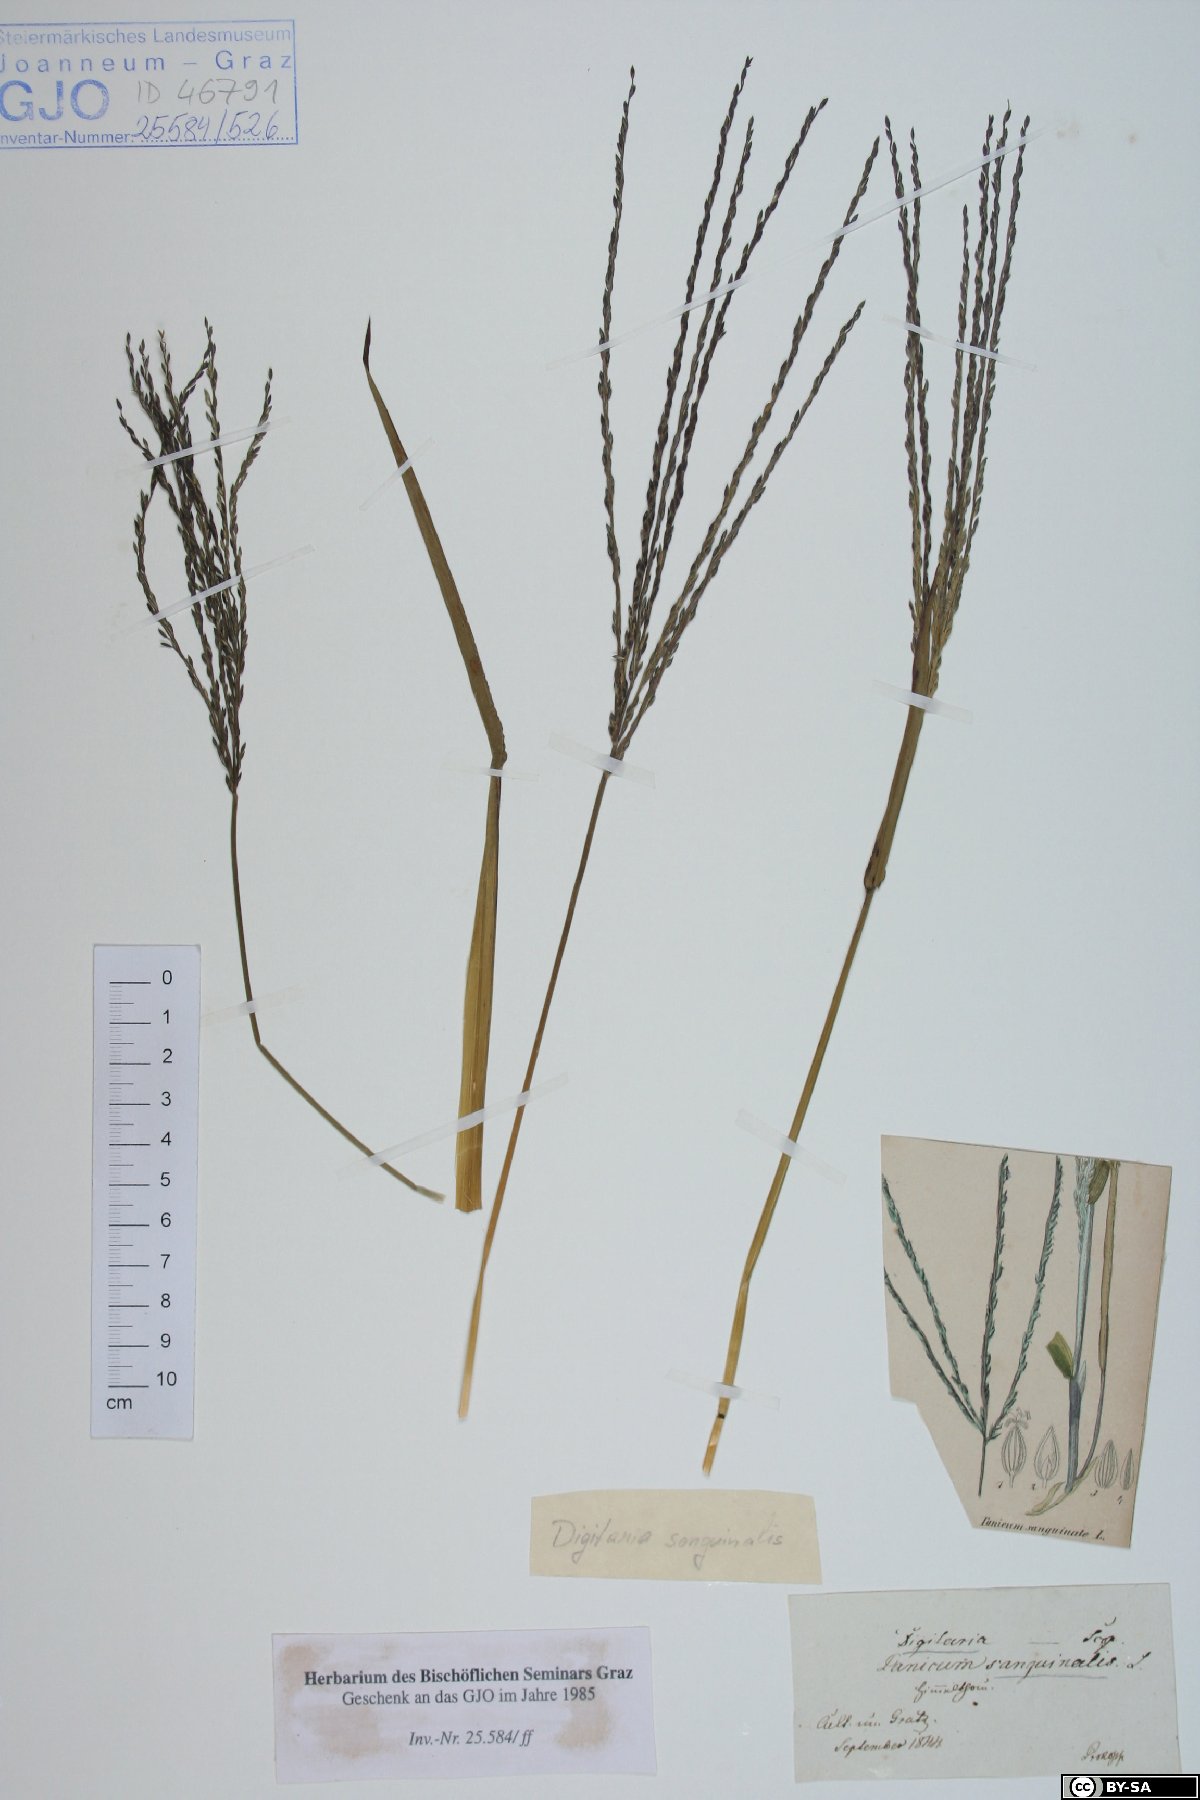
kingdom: Plantae
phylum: Tracheophyta
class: Liliopsida
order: Poales
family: Poaceae
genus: Digitaria
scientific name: Digitaria sanguinalis
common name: Hairy crabgrass
